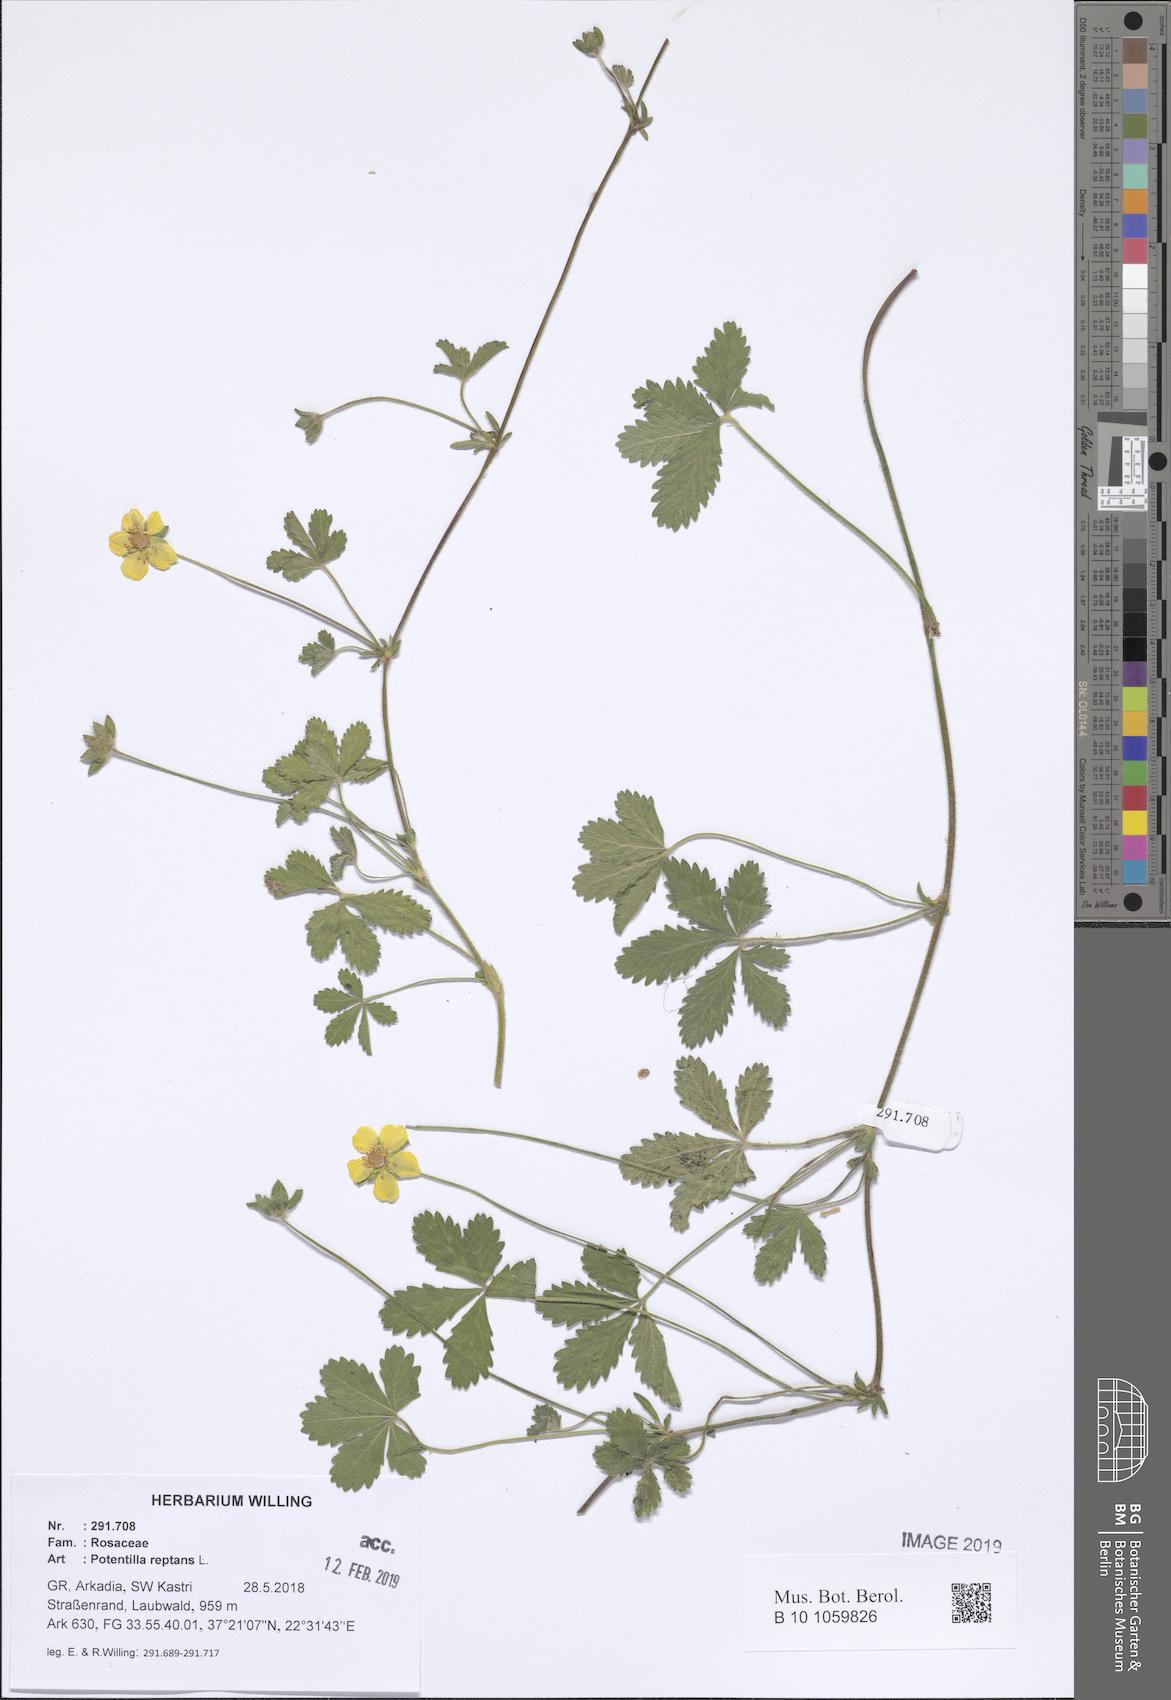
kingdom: Plantae
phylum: Tracheophyta
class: Magnoliopsida
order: Rosales
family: Rosaceae
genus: Potentilla
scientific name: Potentilla reptans
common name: Creeping cinquefoil
